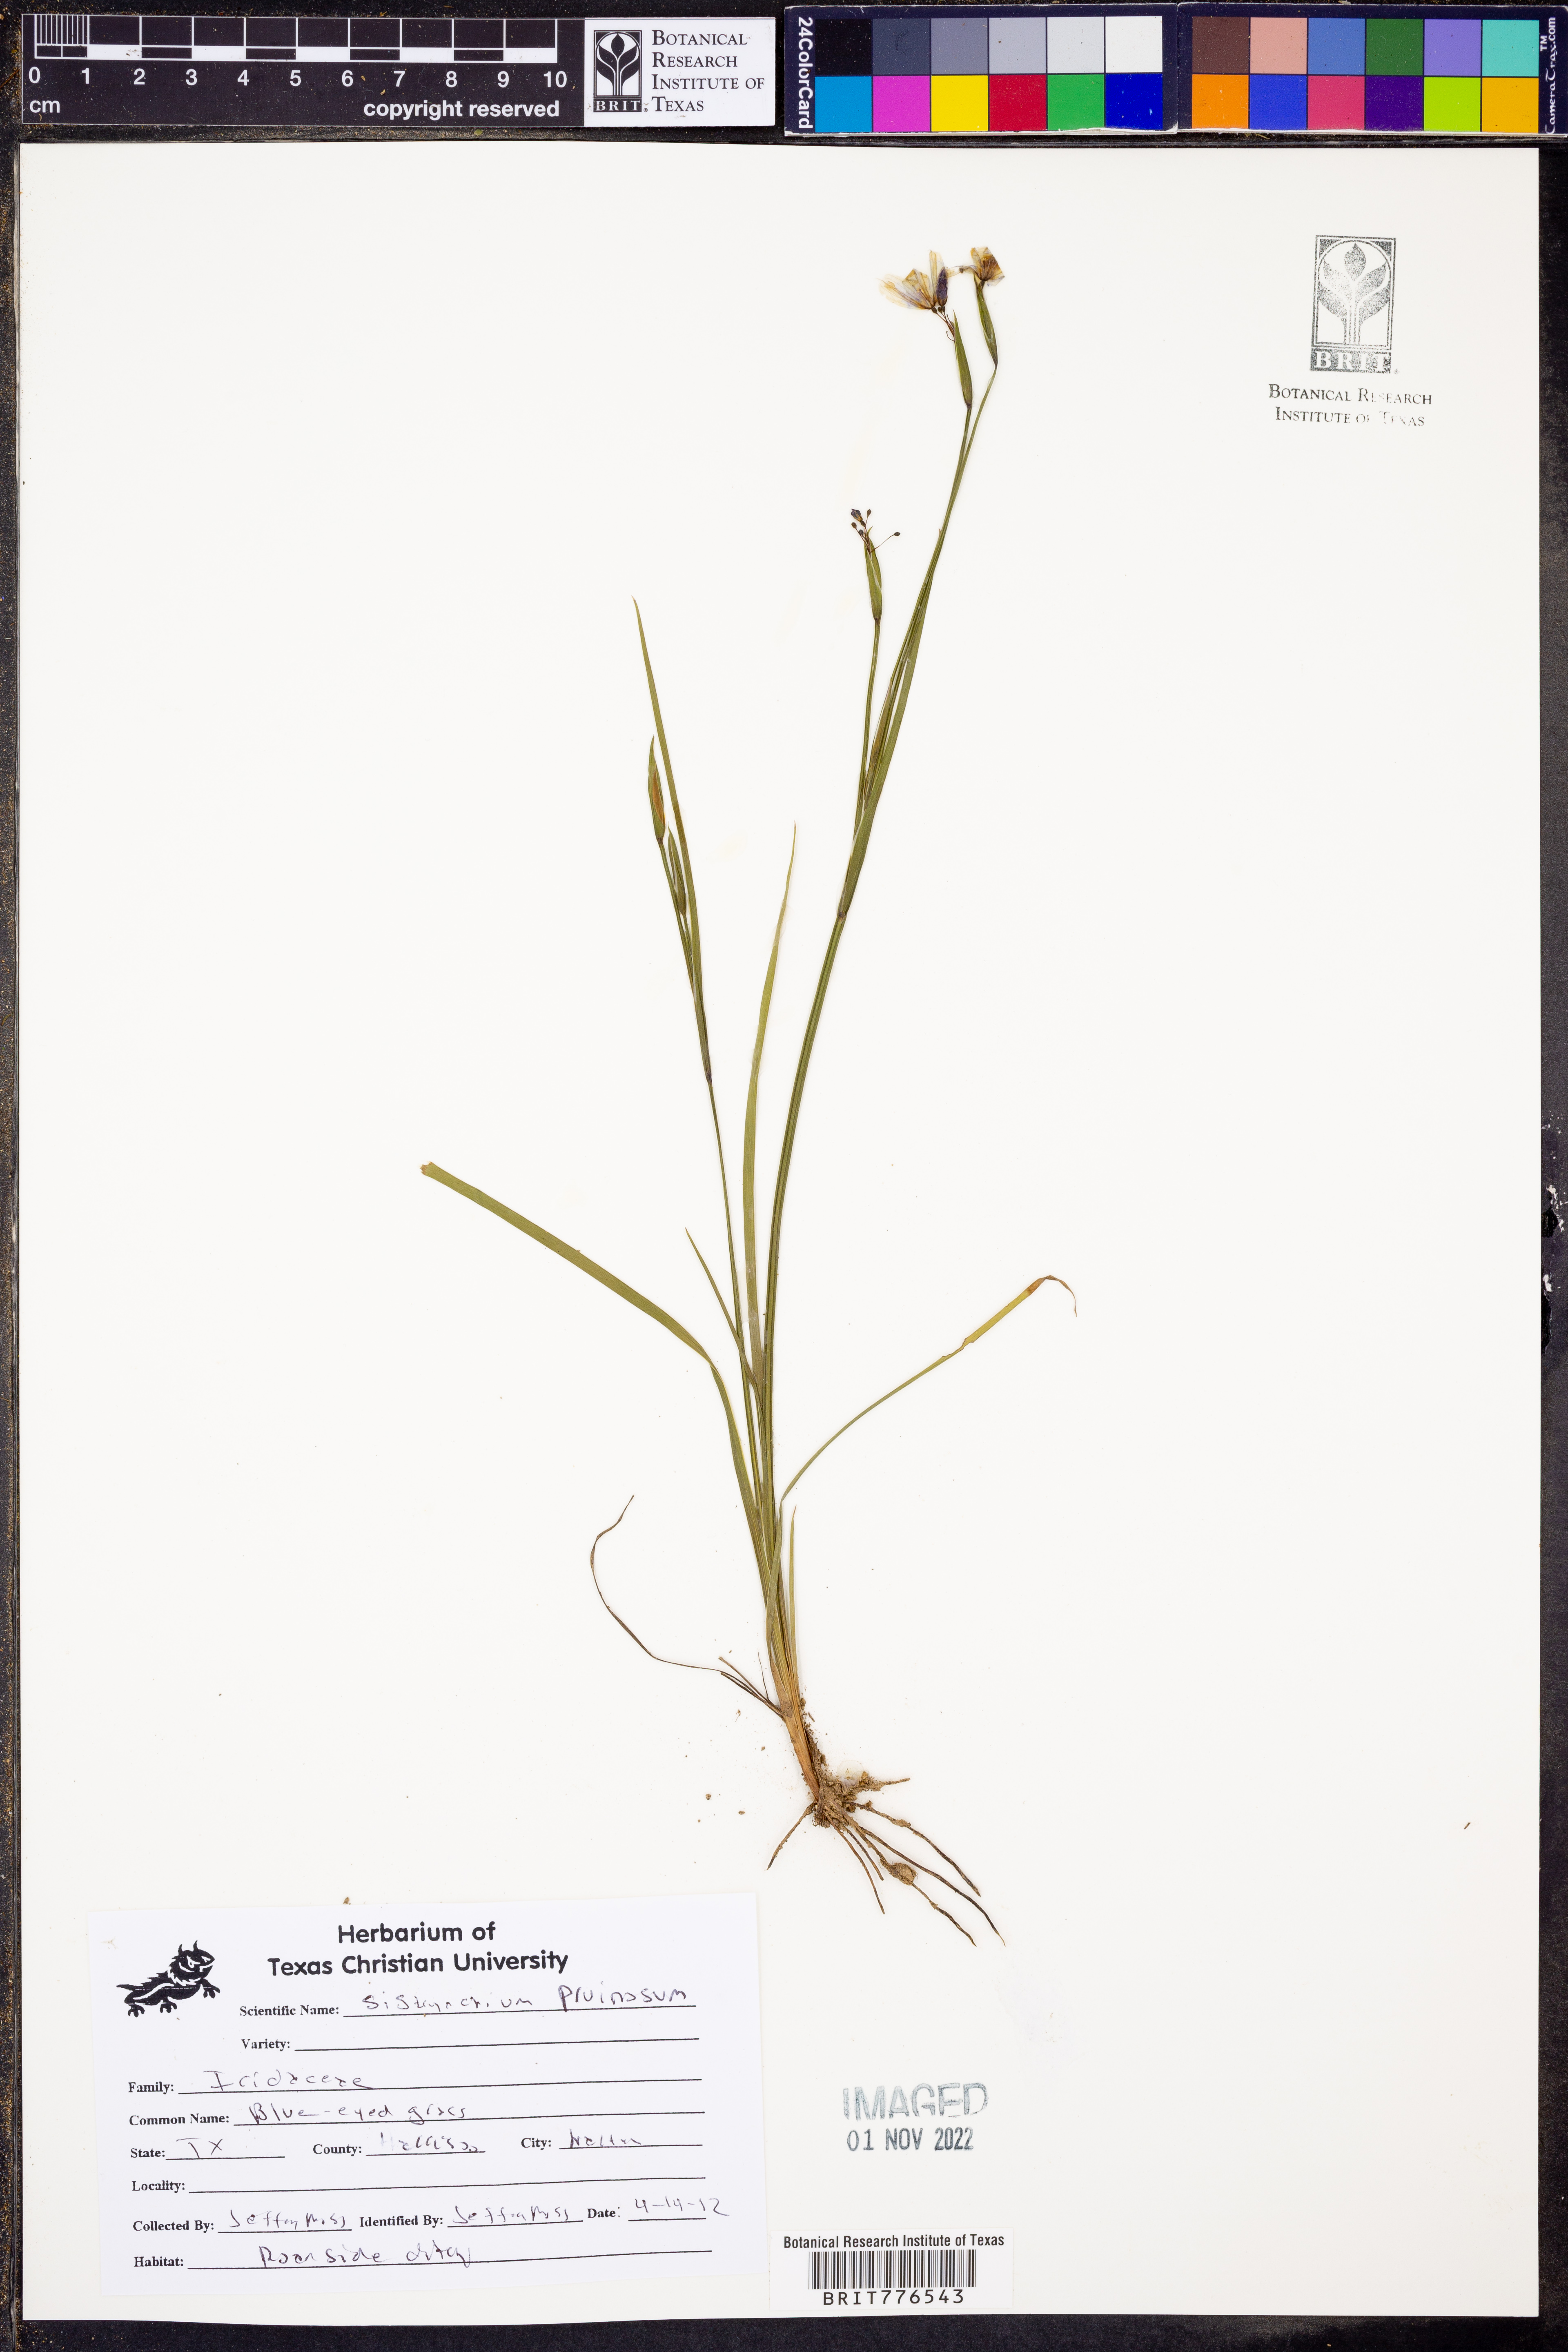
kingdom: Plantae
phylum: Tracheophyta
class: Liliopsida
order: Asparagales
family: Iridaceae
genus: Sisyrinchium
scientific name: Sisyrinchium pruinosum
